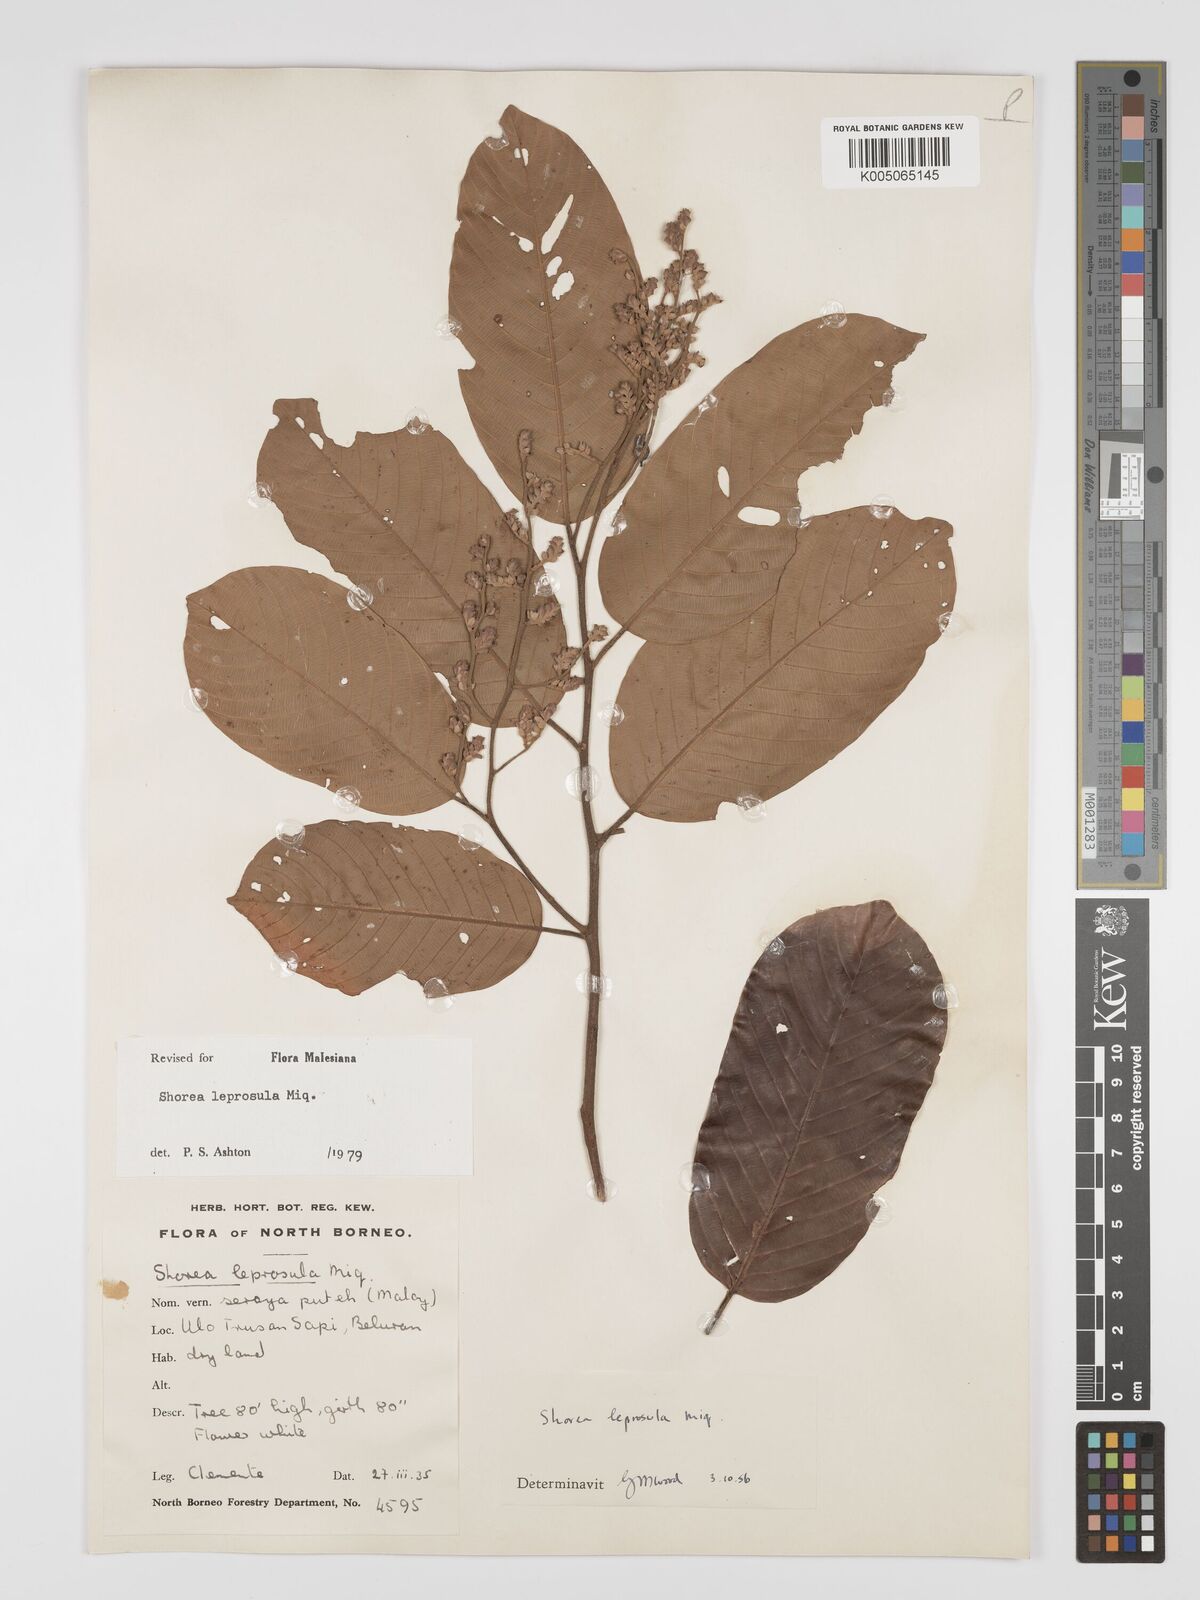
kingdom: Plantae
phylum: Tracheophyta
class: Magnoliopsida
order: Malvales
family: Dipterocarpaceae
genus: Shorea
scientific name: Shorea leprosula
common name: Light red meranti
